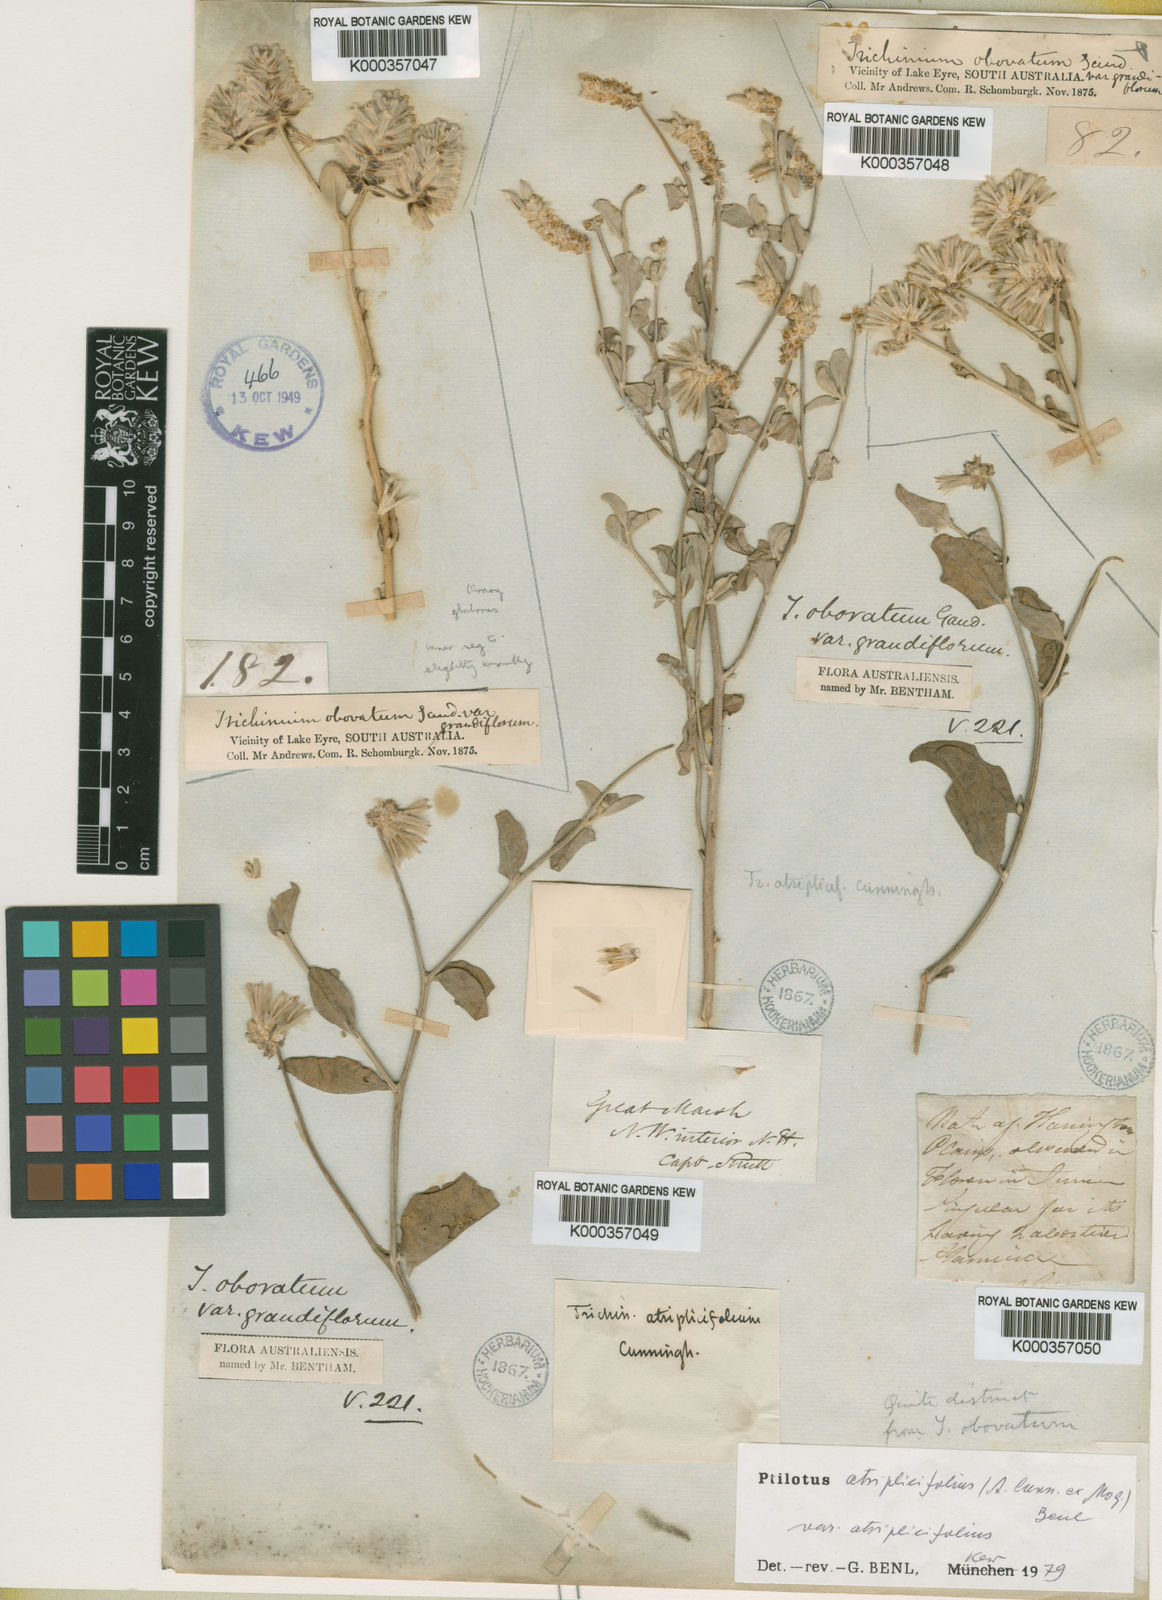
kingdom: Plantae
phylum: Tracheophyta
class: Magnoliopsida
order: Caryophyllales
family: Amaranthaceae
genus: Ptilotus
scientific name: Ptilotus
